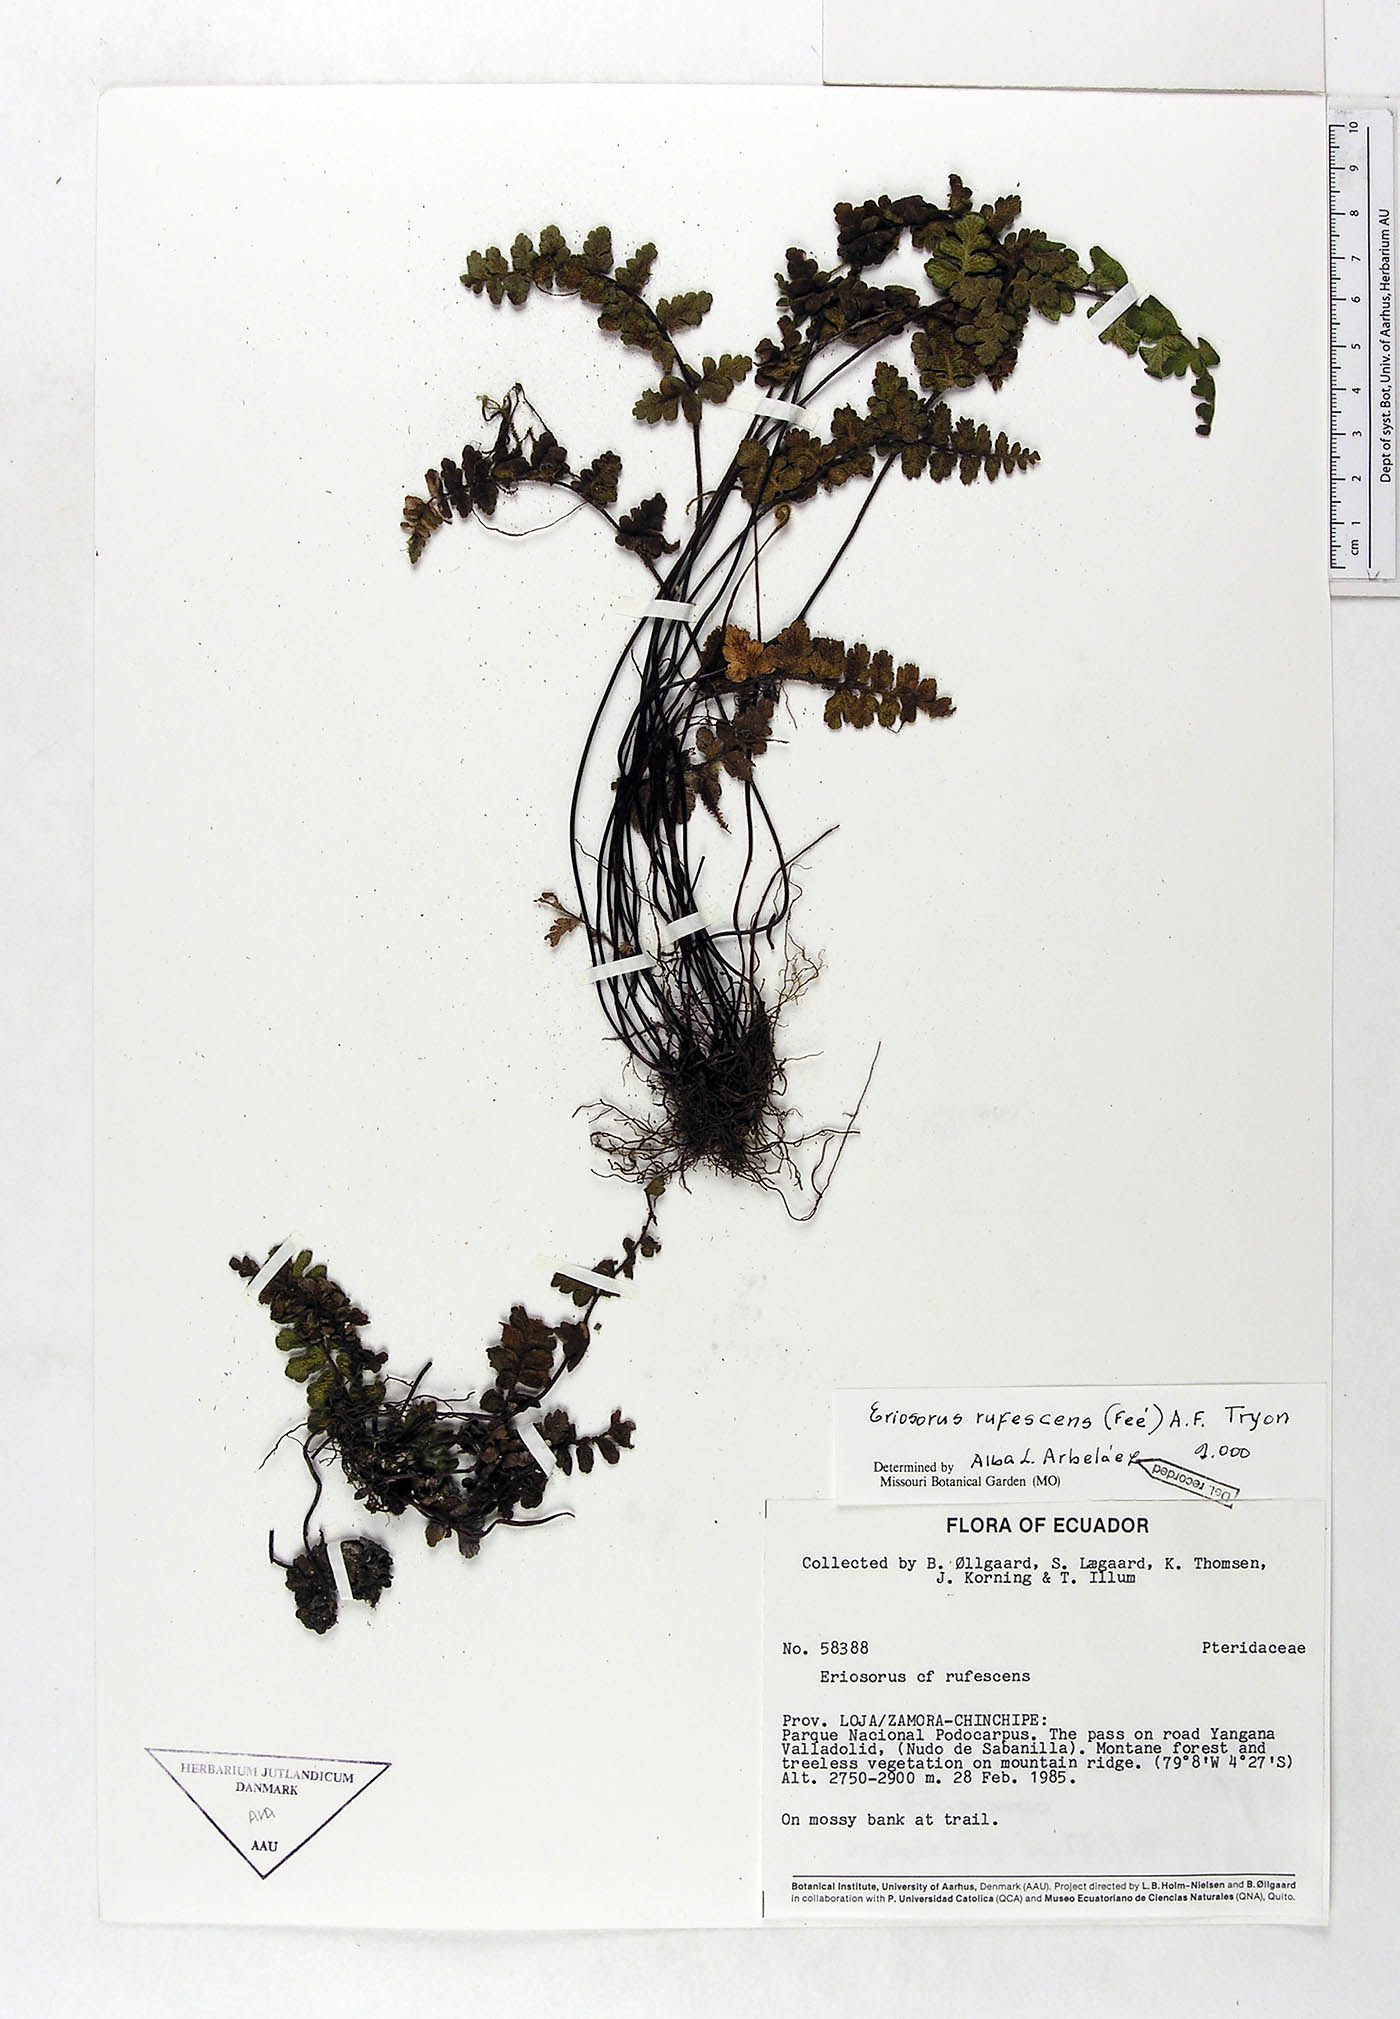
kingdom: Plantae
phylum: Tracheophyta
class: Polypodiopsida
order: Polypodiales
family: Pteridaceae
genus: Jamesonia
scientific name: Jamesonia rufescens
